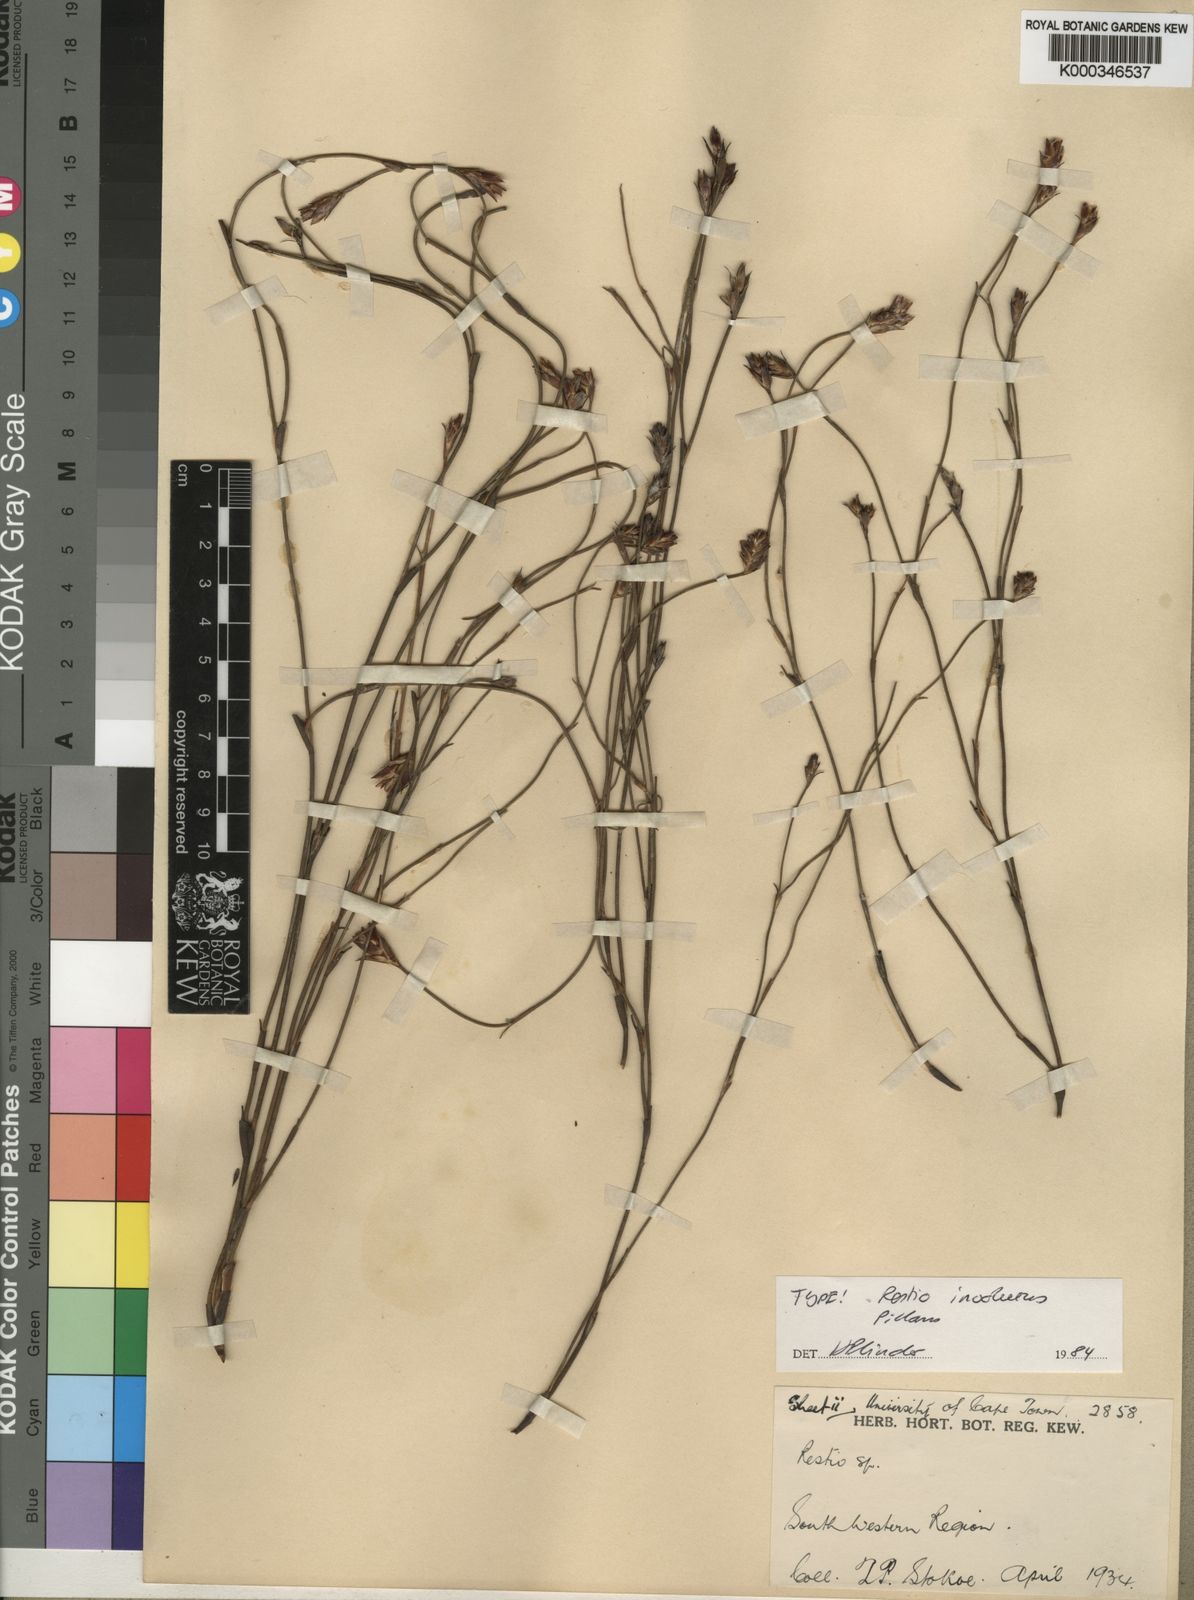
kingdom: Plantae
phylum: Tracheophyta
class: Liliopsida
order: Poales
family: Restionaceae
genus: Restio
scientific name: Restio involutus
